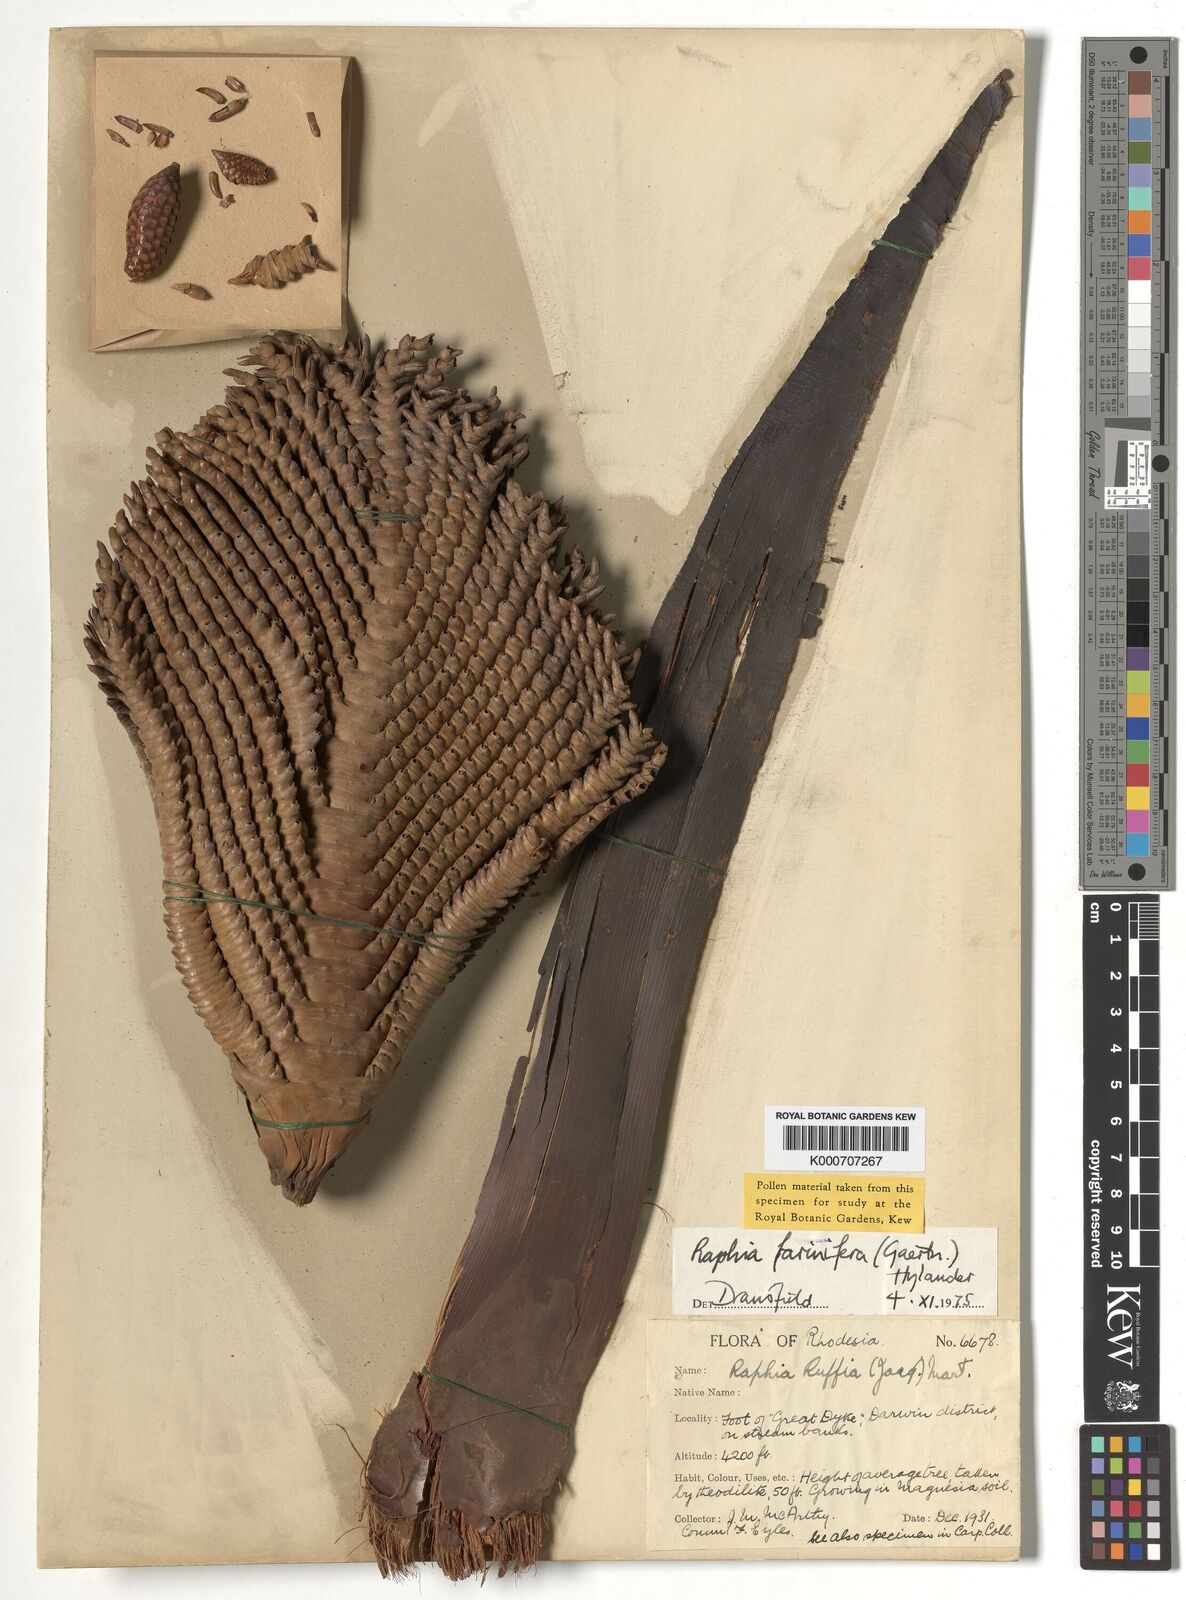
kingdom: Plantae
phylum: Tracheophyta
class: Liliopsida
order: Arecales
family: Arecaceae
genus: Raphia
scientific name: Raphia farinifera
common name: Raphia palm
